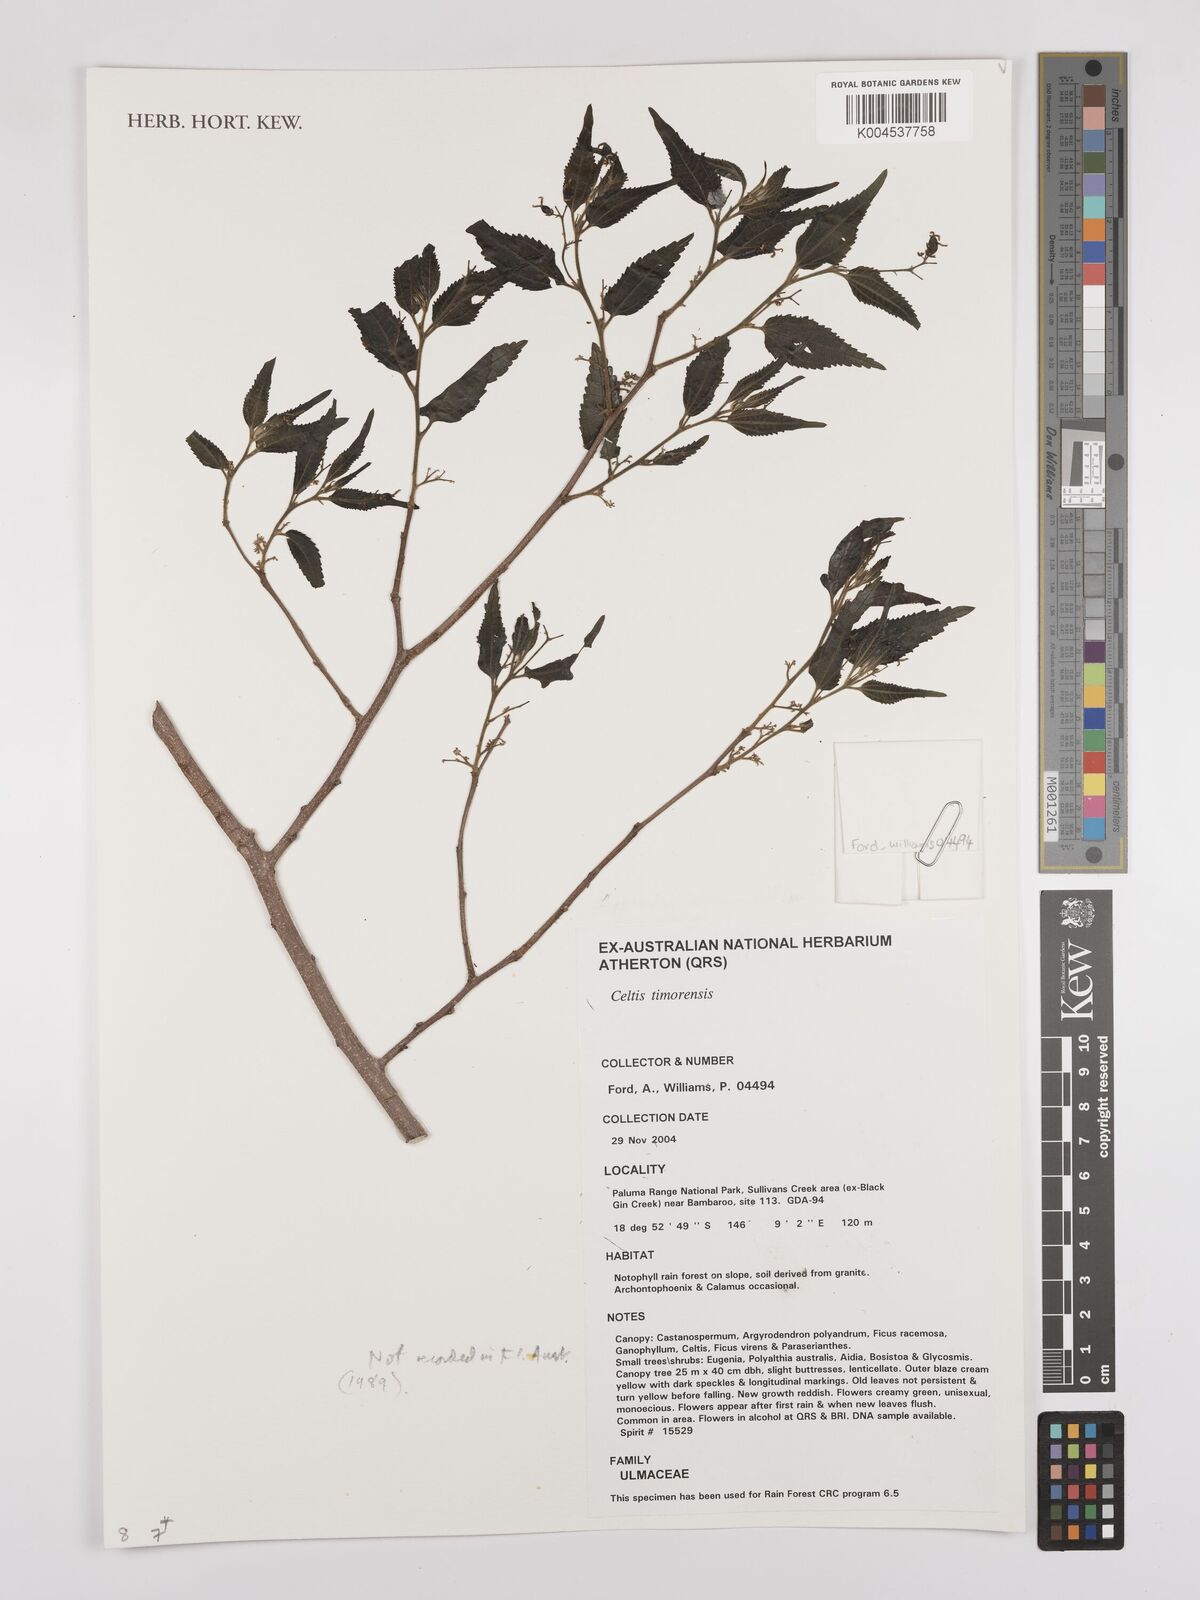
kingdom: Plantae
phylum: Tracheophyta
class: Magnoliopsida
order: Rosales
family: Cannabaceae
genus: Celtis
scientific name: Celtis timorensis
